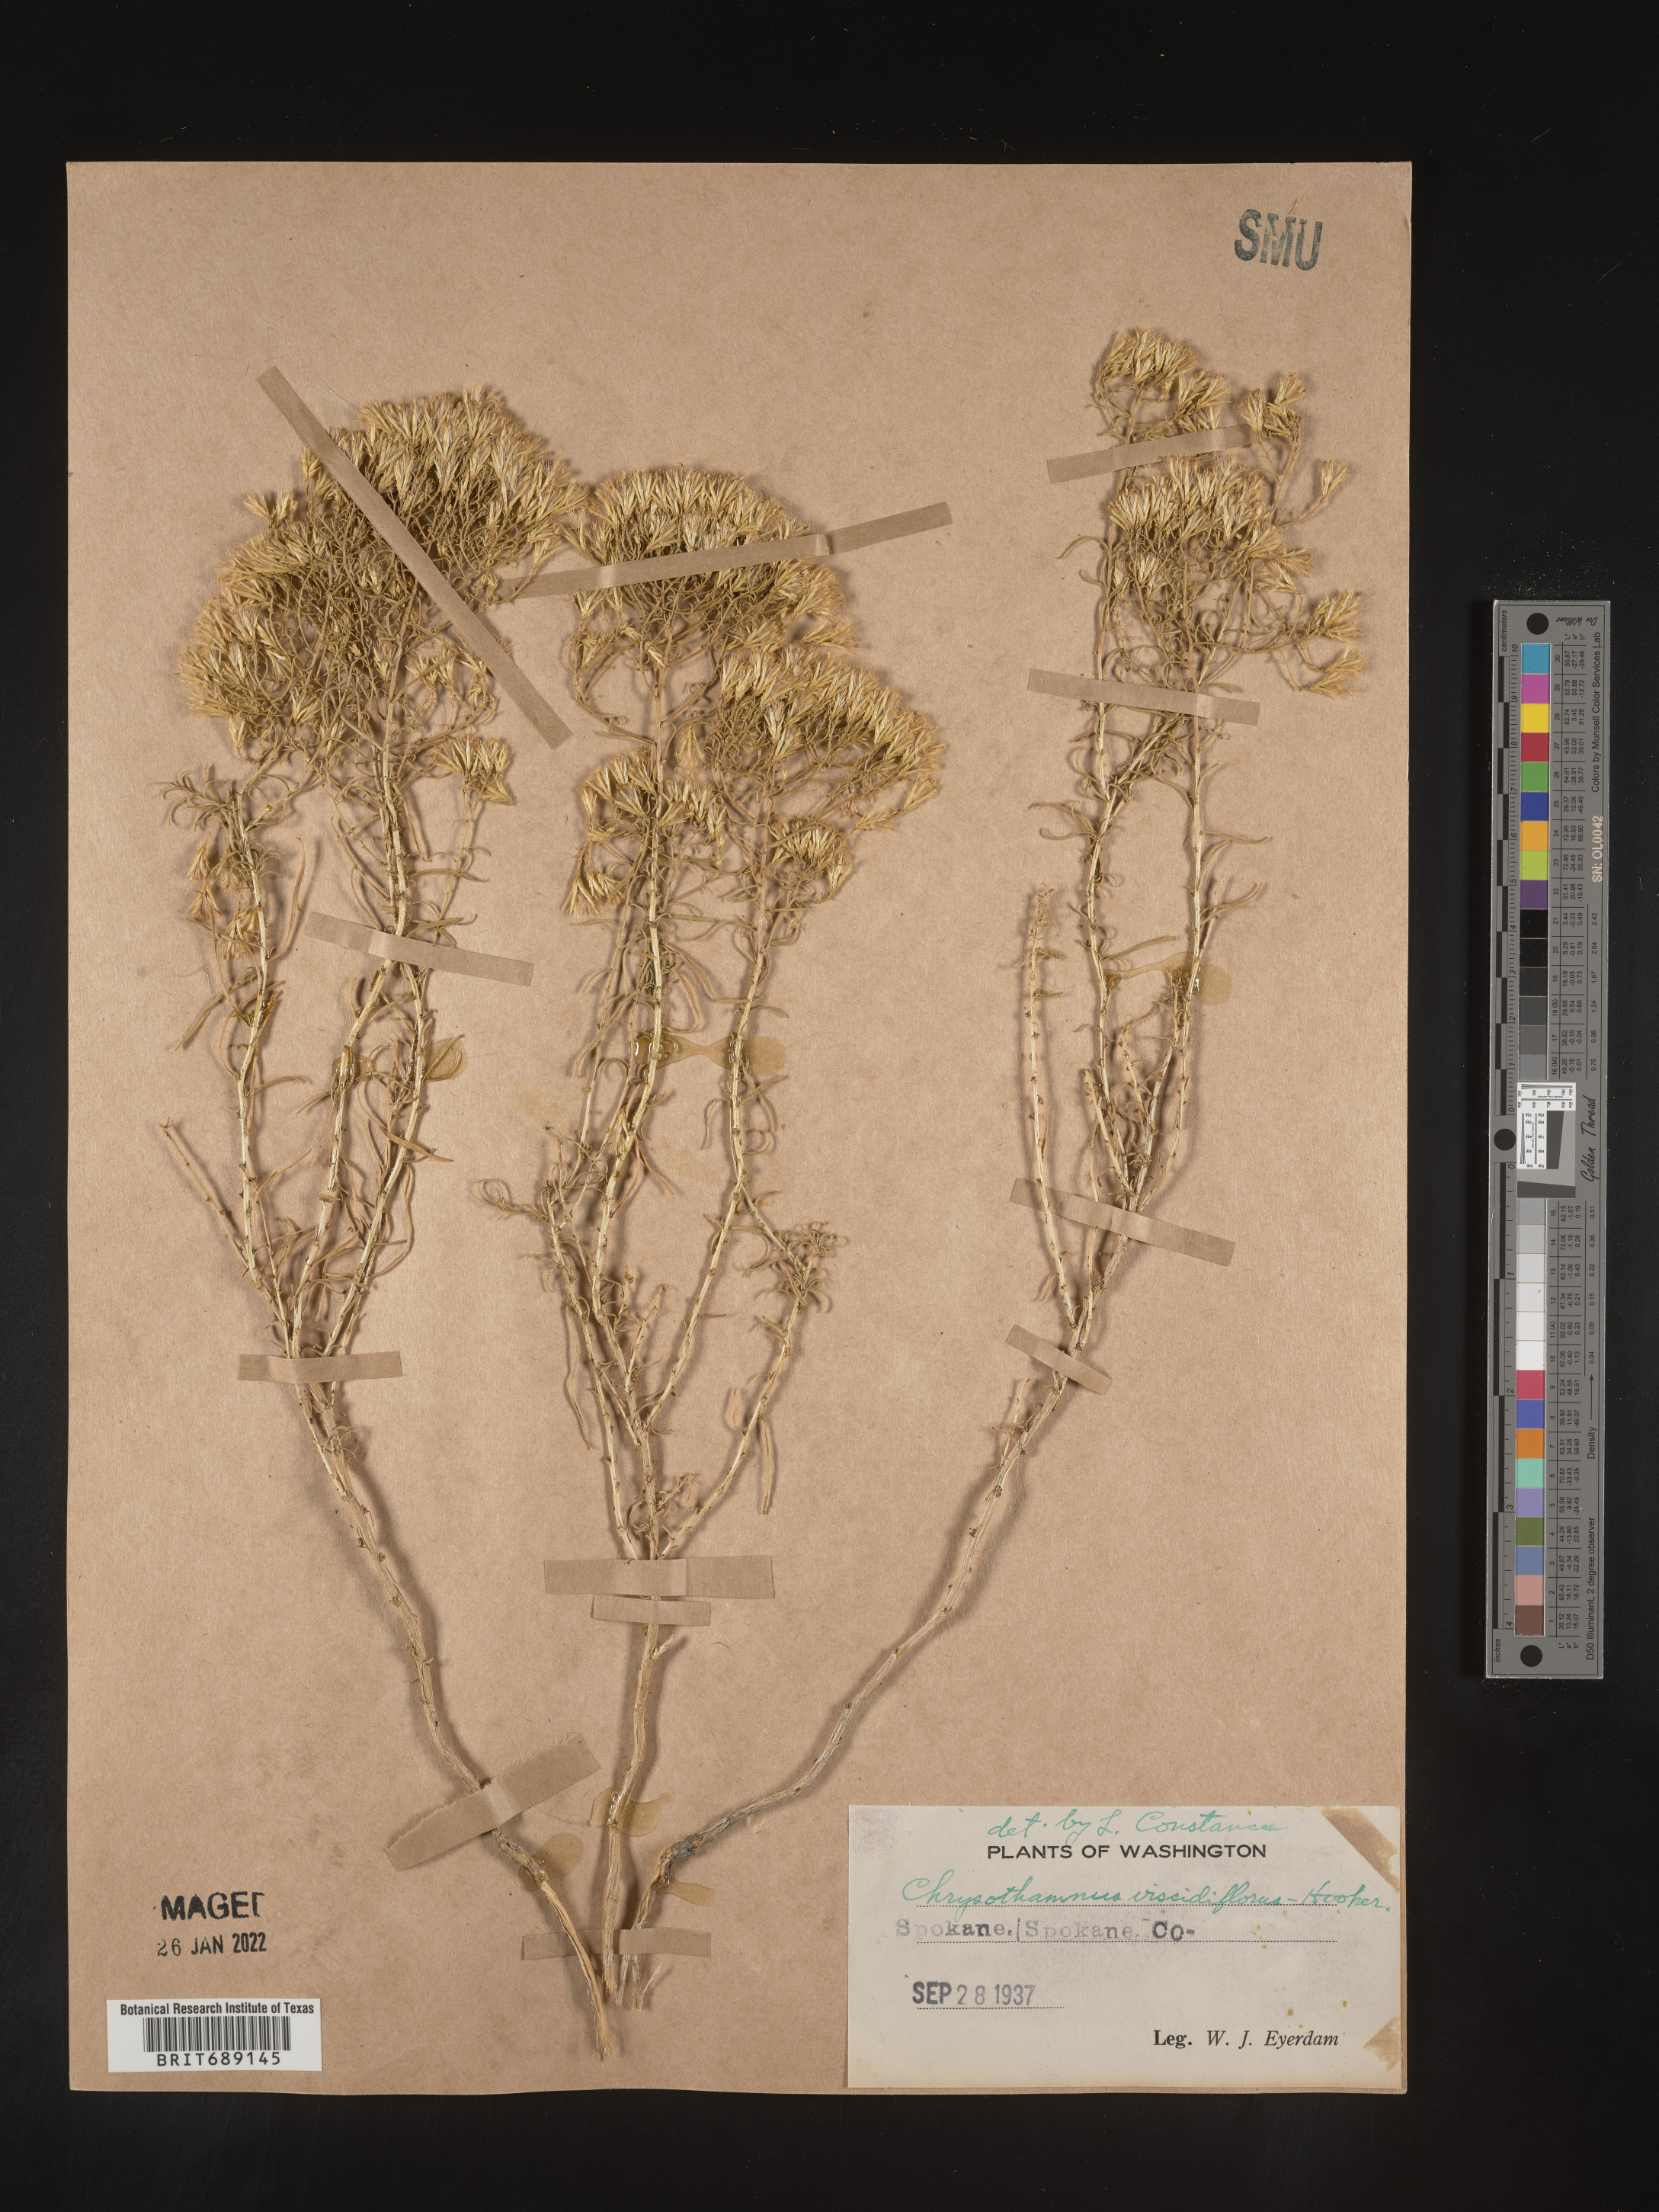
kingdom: Plantae
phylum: Tracheophyta
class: Magnoliopsida
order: Asterales
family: Asteraceae
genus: Chrysothamnus
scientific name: Chrysothamnus viscidiflorus
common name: Yellow rabbitbrush
